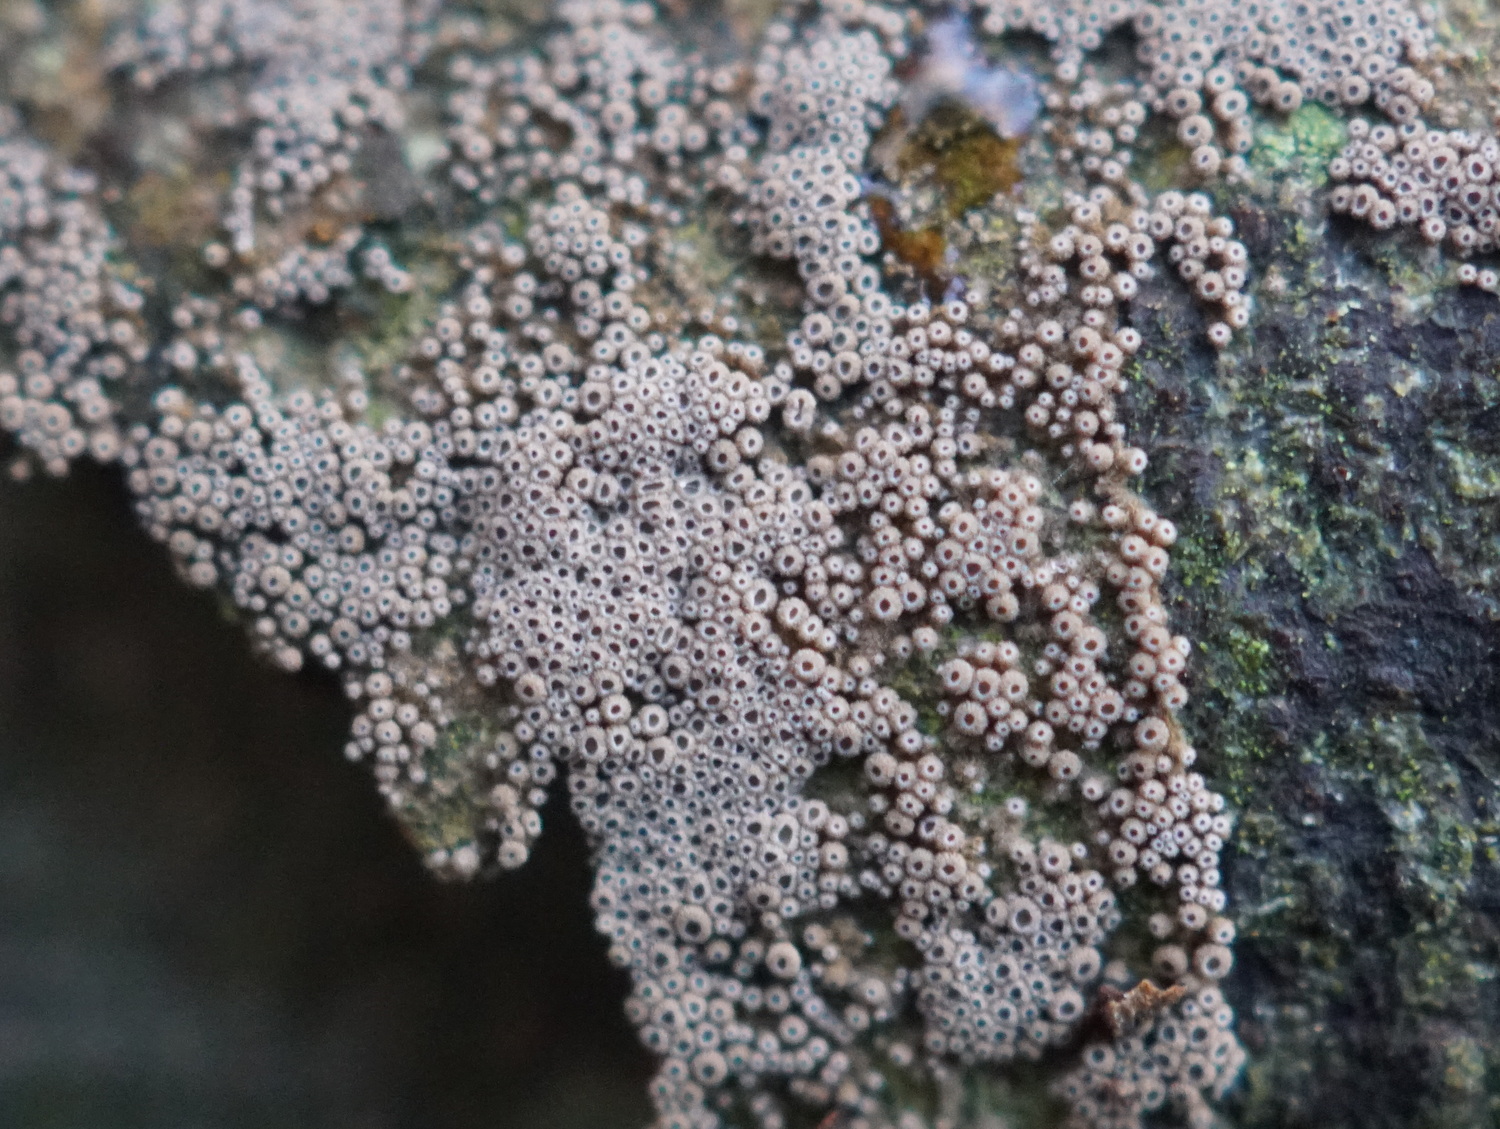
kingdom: Fungi
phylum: Basidiomycota
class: Agaricomycetes
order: Agaricales
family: Niaceae
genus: Merismodes
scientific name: Merismodes anomala
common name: almindelig læderskål
